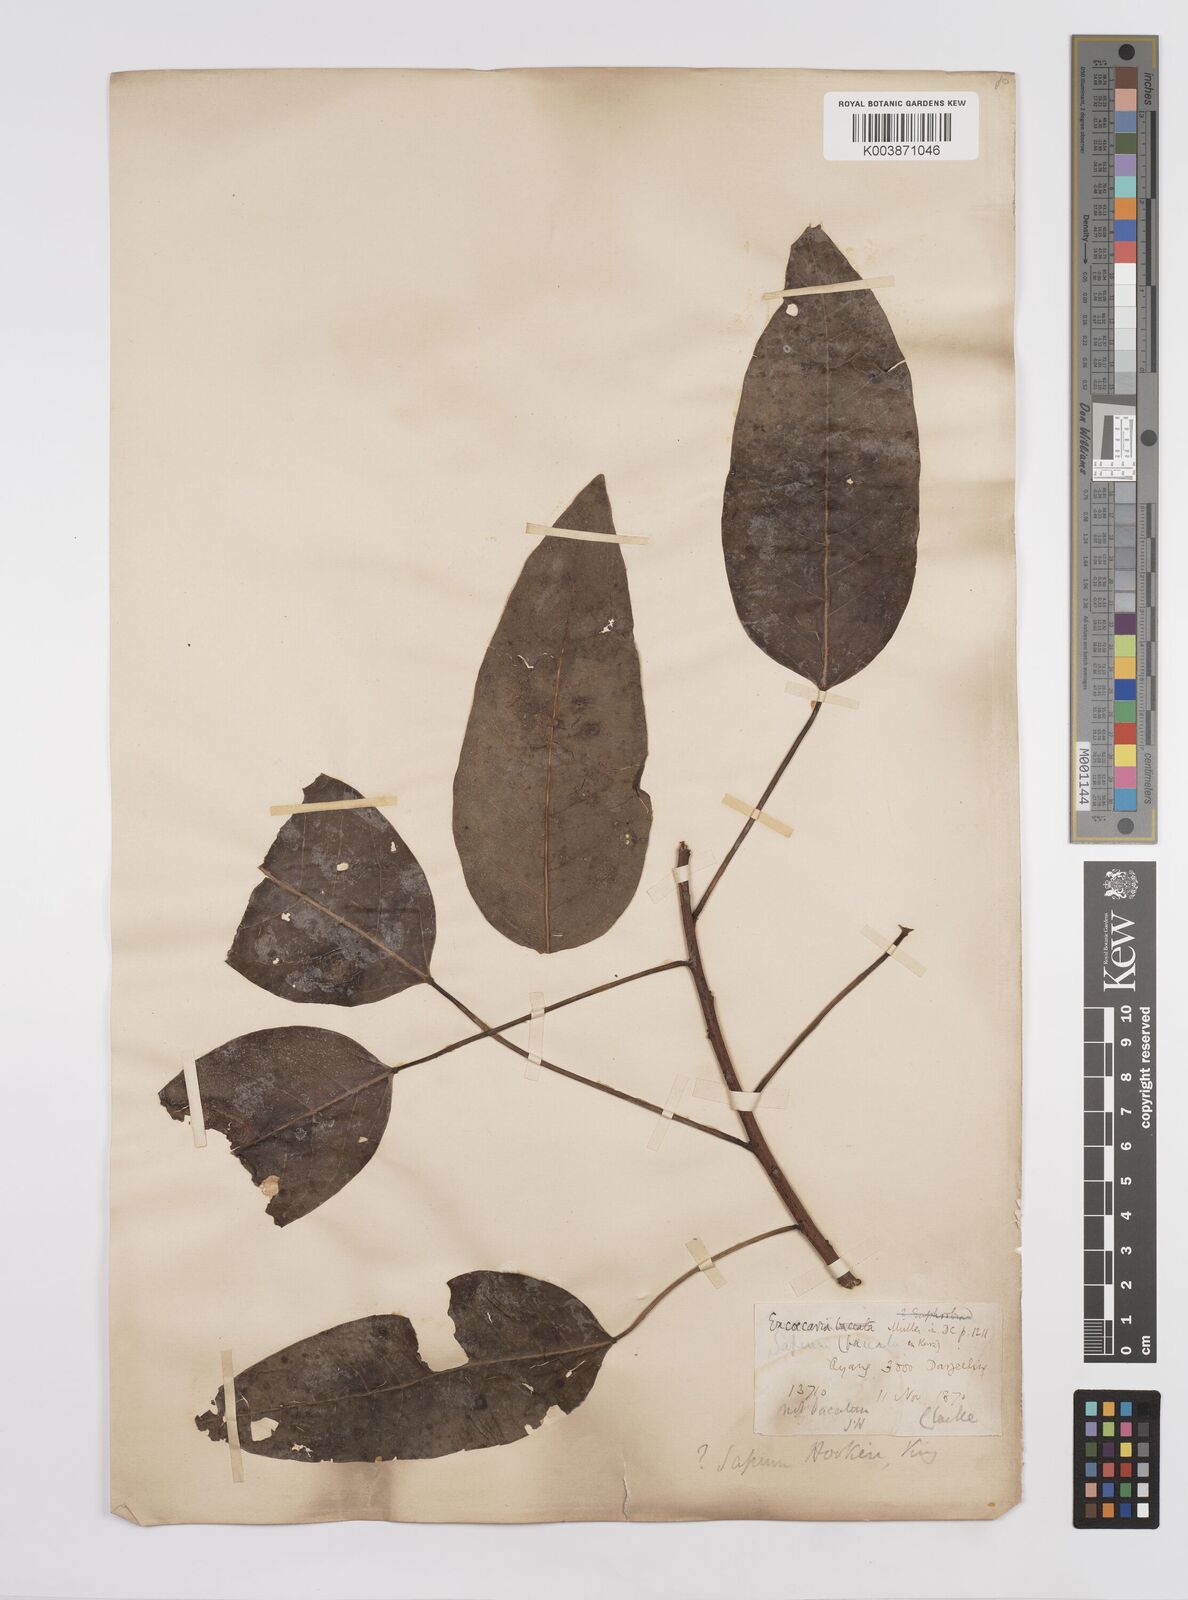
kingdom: Plantae
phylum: Tracheophyta
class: Magnoliopsida
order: Malpighiales
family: Euphorbiaceae
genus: Triadica
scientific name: Triadica cochinchinensis
